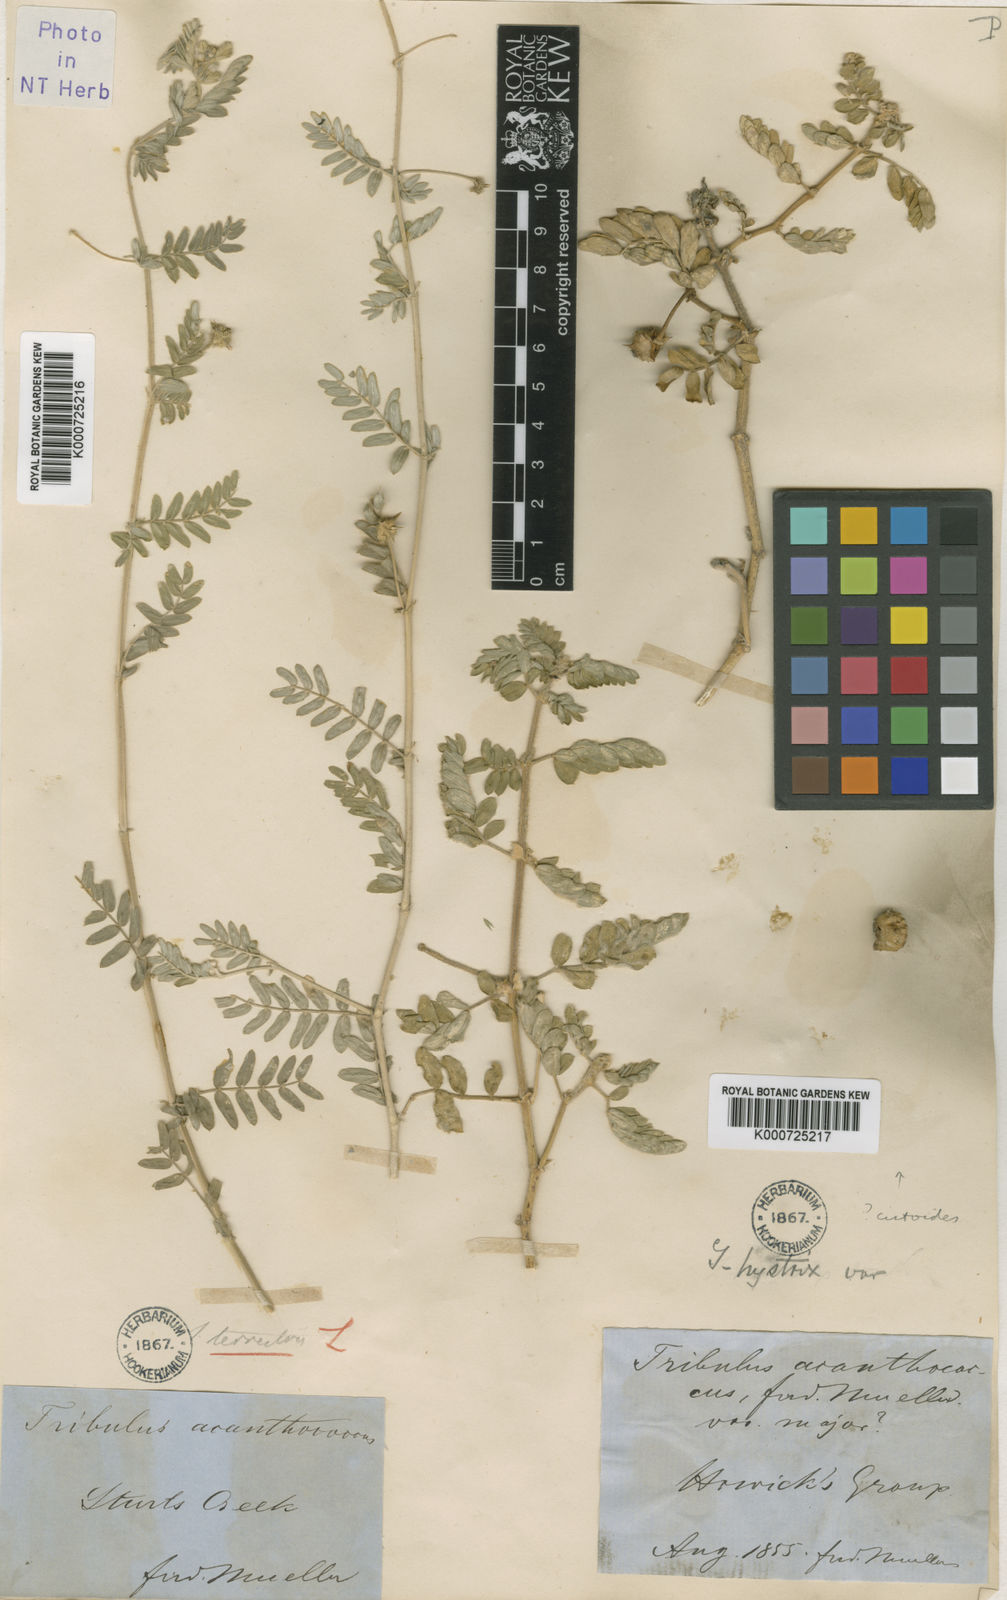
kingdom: Plantae
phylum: Tracheophyta
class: Magnoliopsida
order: Zygophyllales
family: Zygophyllaceae
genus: Tribulus
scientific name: Tribulus terrestris
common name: Puncturevine
